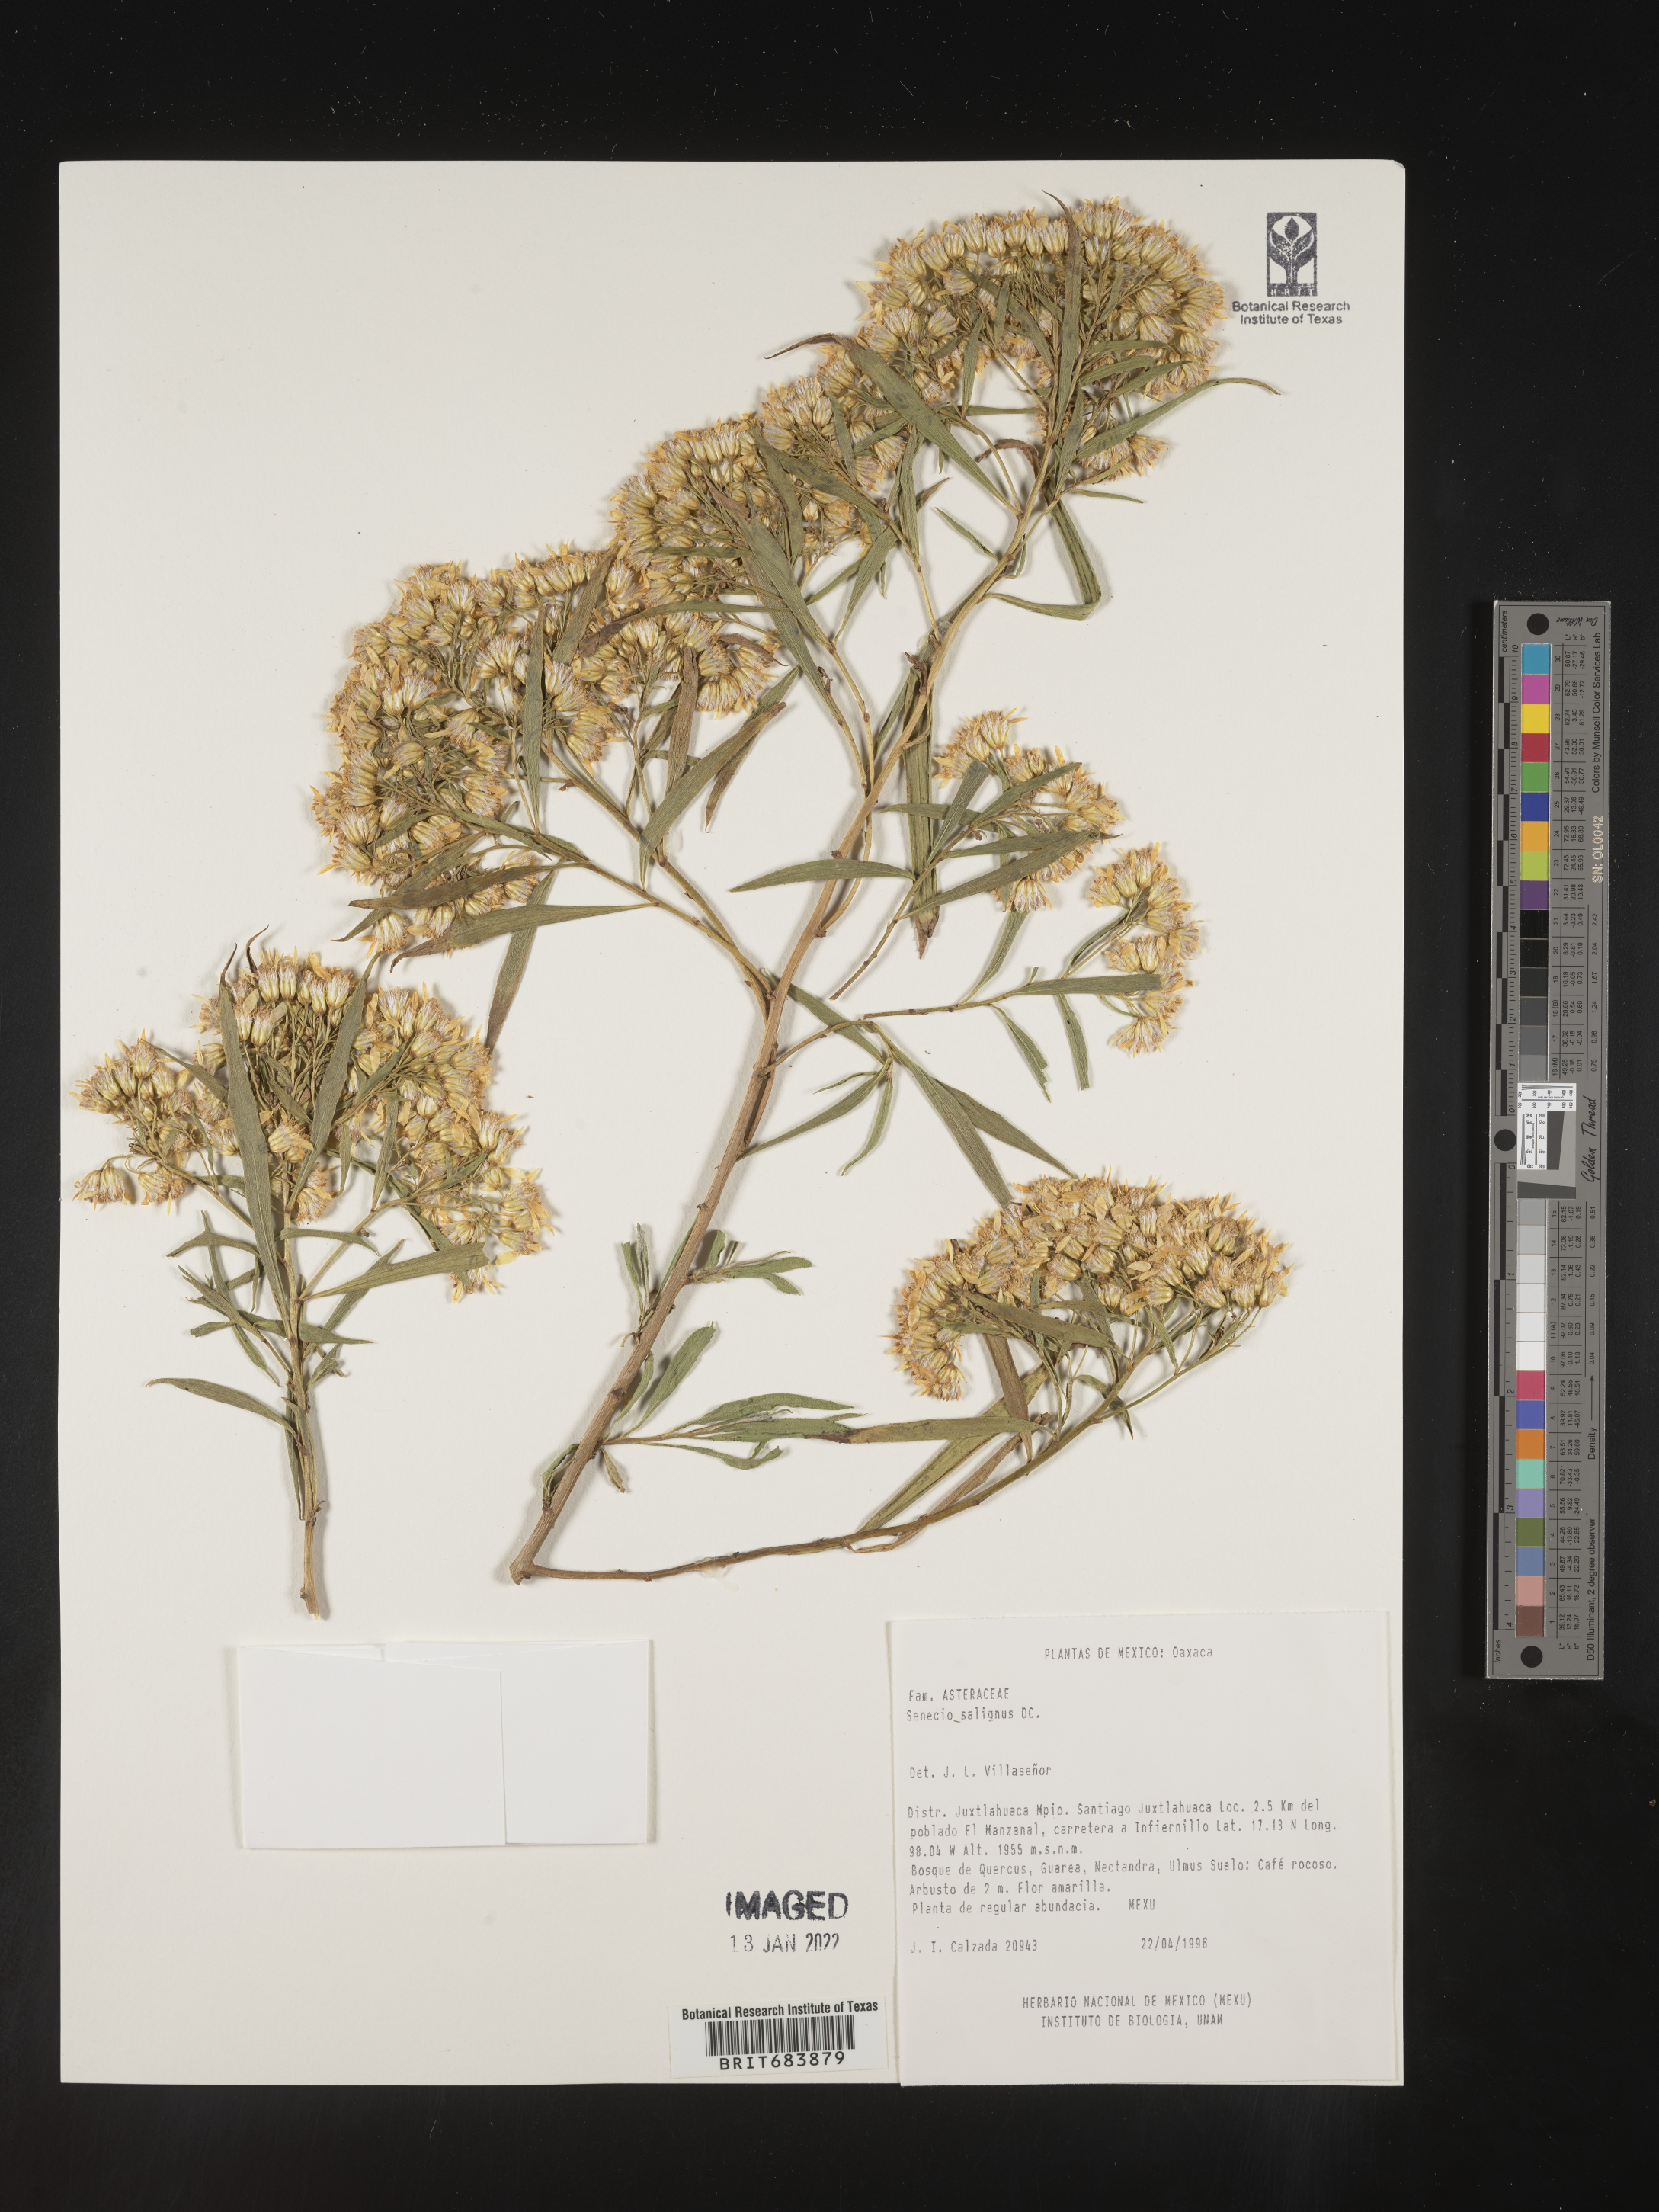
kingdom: Plantae
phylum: Tracheophyta
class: Magnoliopsida
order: Asterales
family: Asteraceae
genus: Barkleyanthus
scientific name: Barkleyanthus
